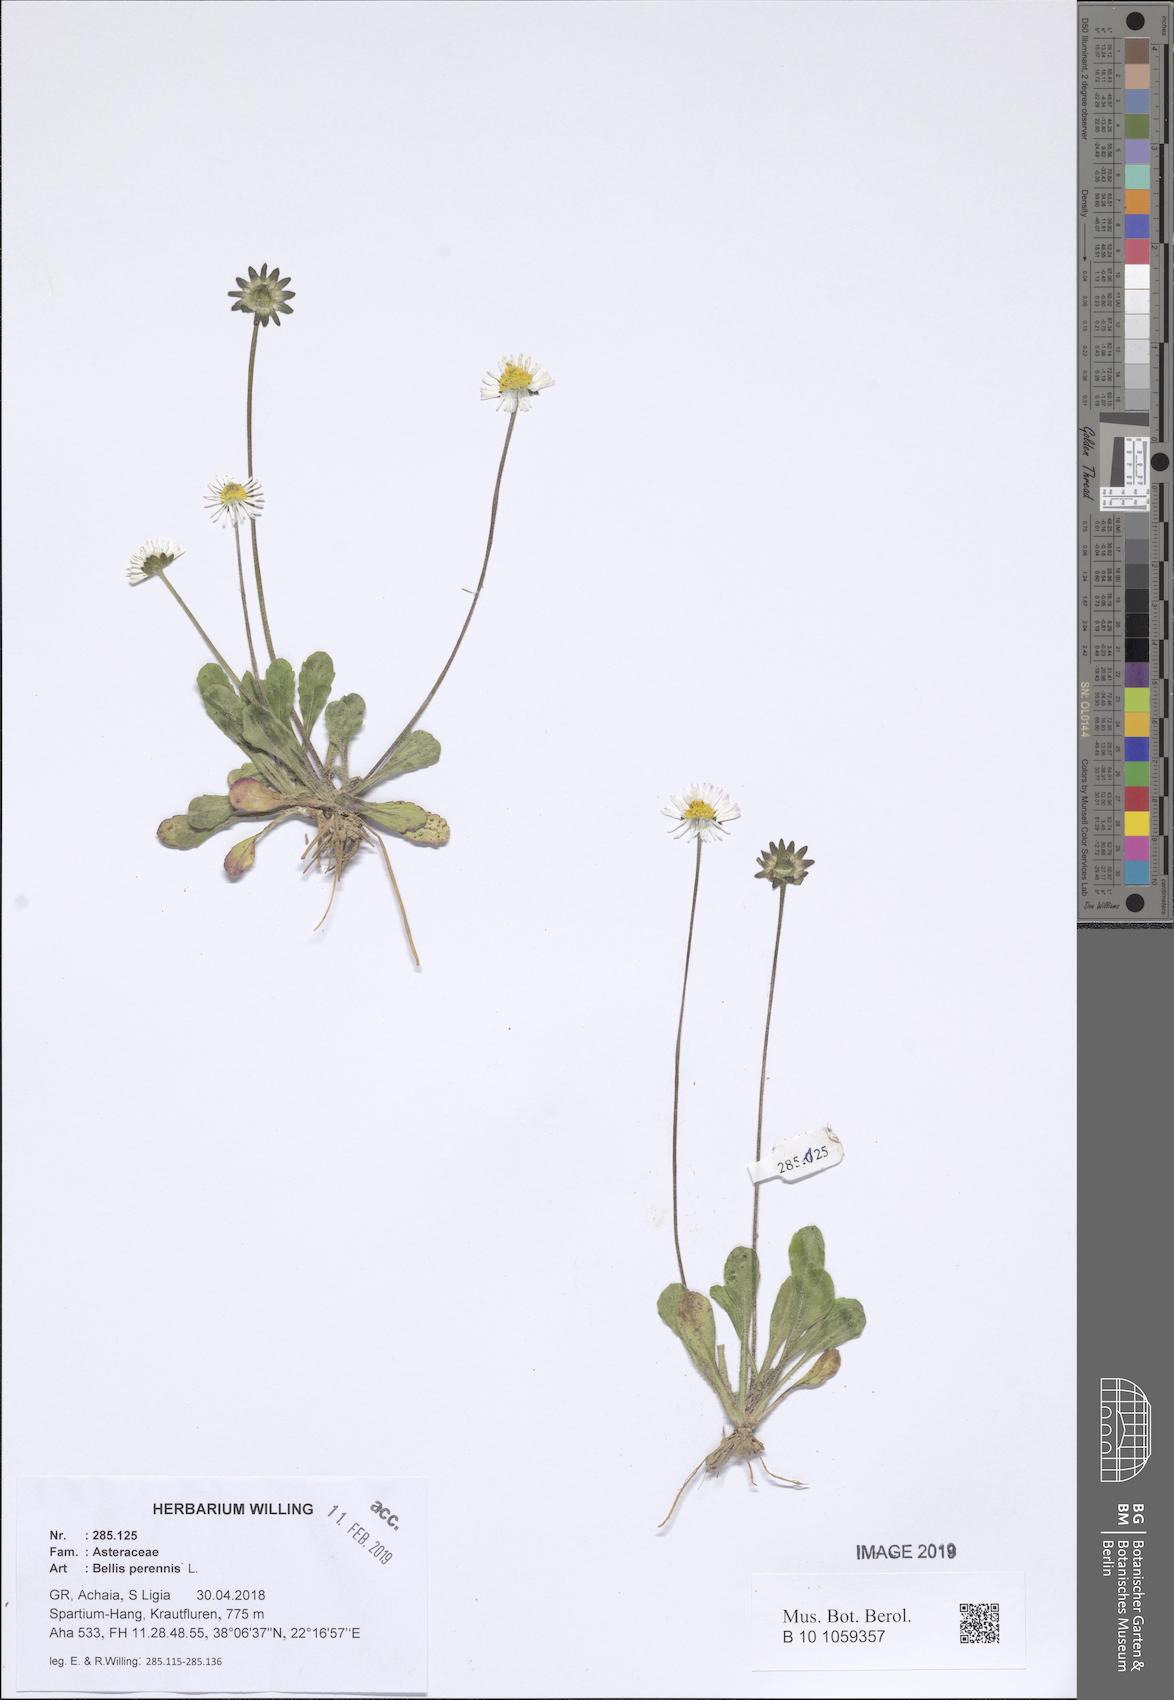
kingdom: Plantae
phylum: Tracheophyta
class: Magnoliopsida
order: Asterales
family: Asteraceae
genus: Bellis
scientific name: Bellis perennis
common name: Lawndaisy
